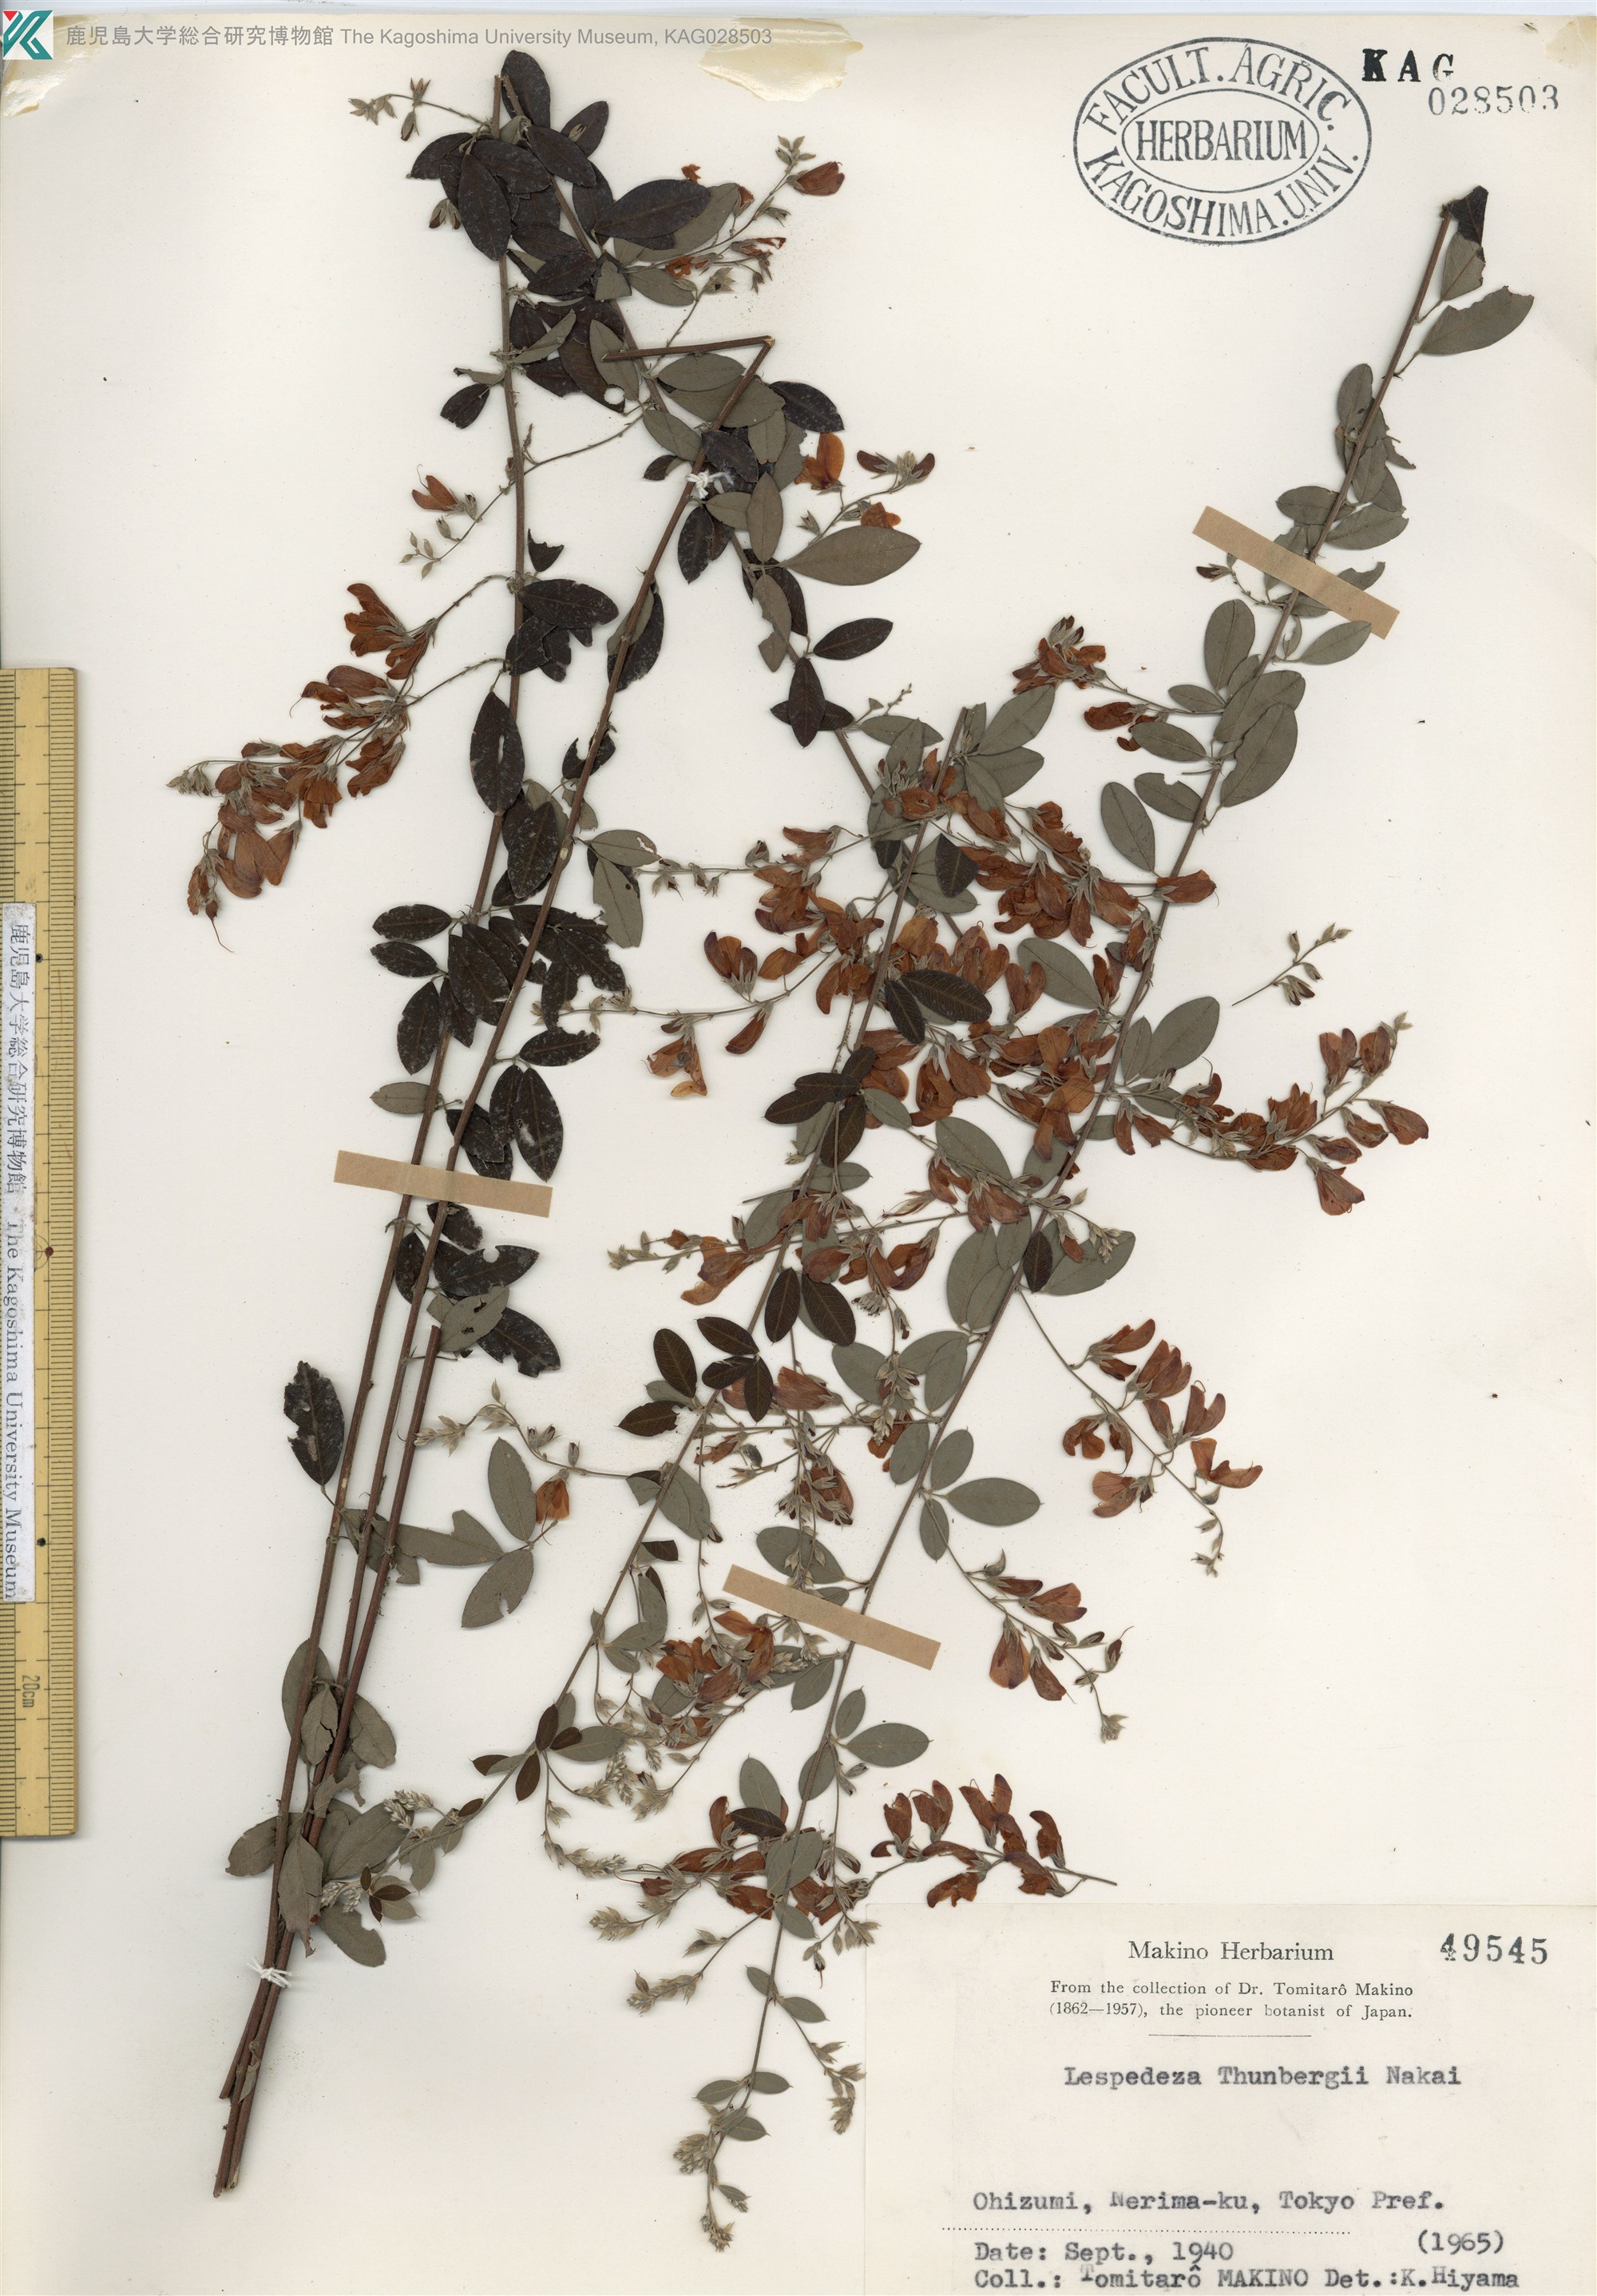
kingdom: Plantae
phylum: Tracheophyta
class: Magnoliopsida
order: Fabales
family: Fabaceae
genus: Lespedeza
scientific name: Lespedeza thunbergii
